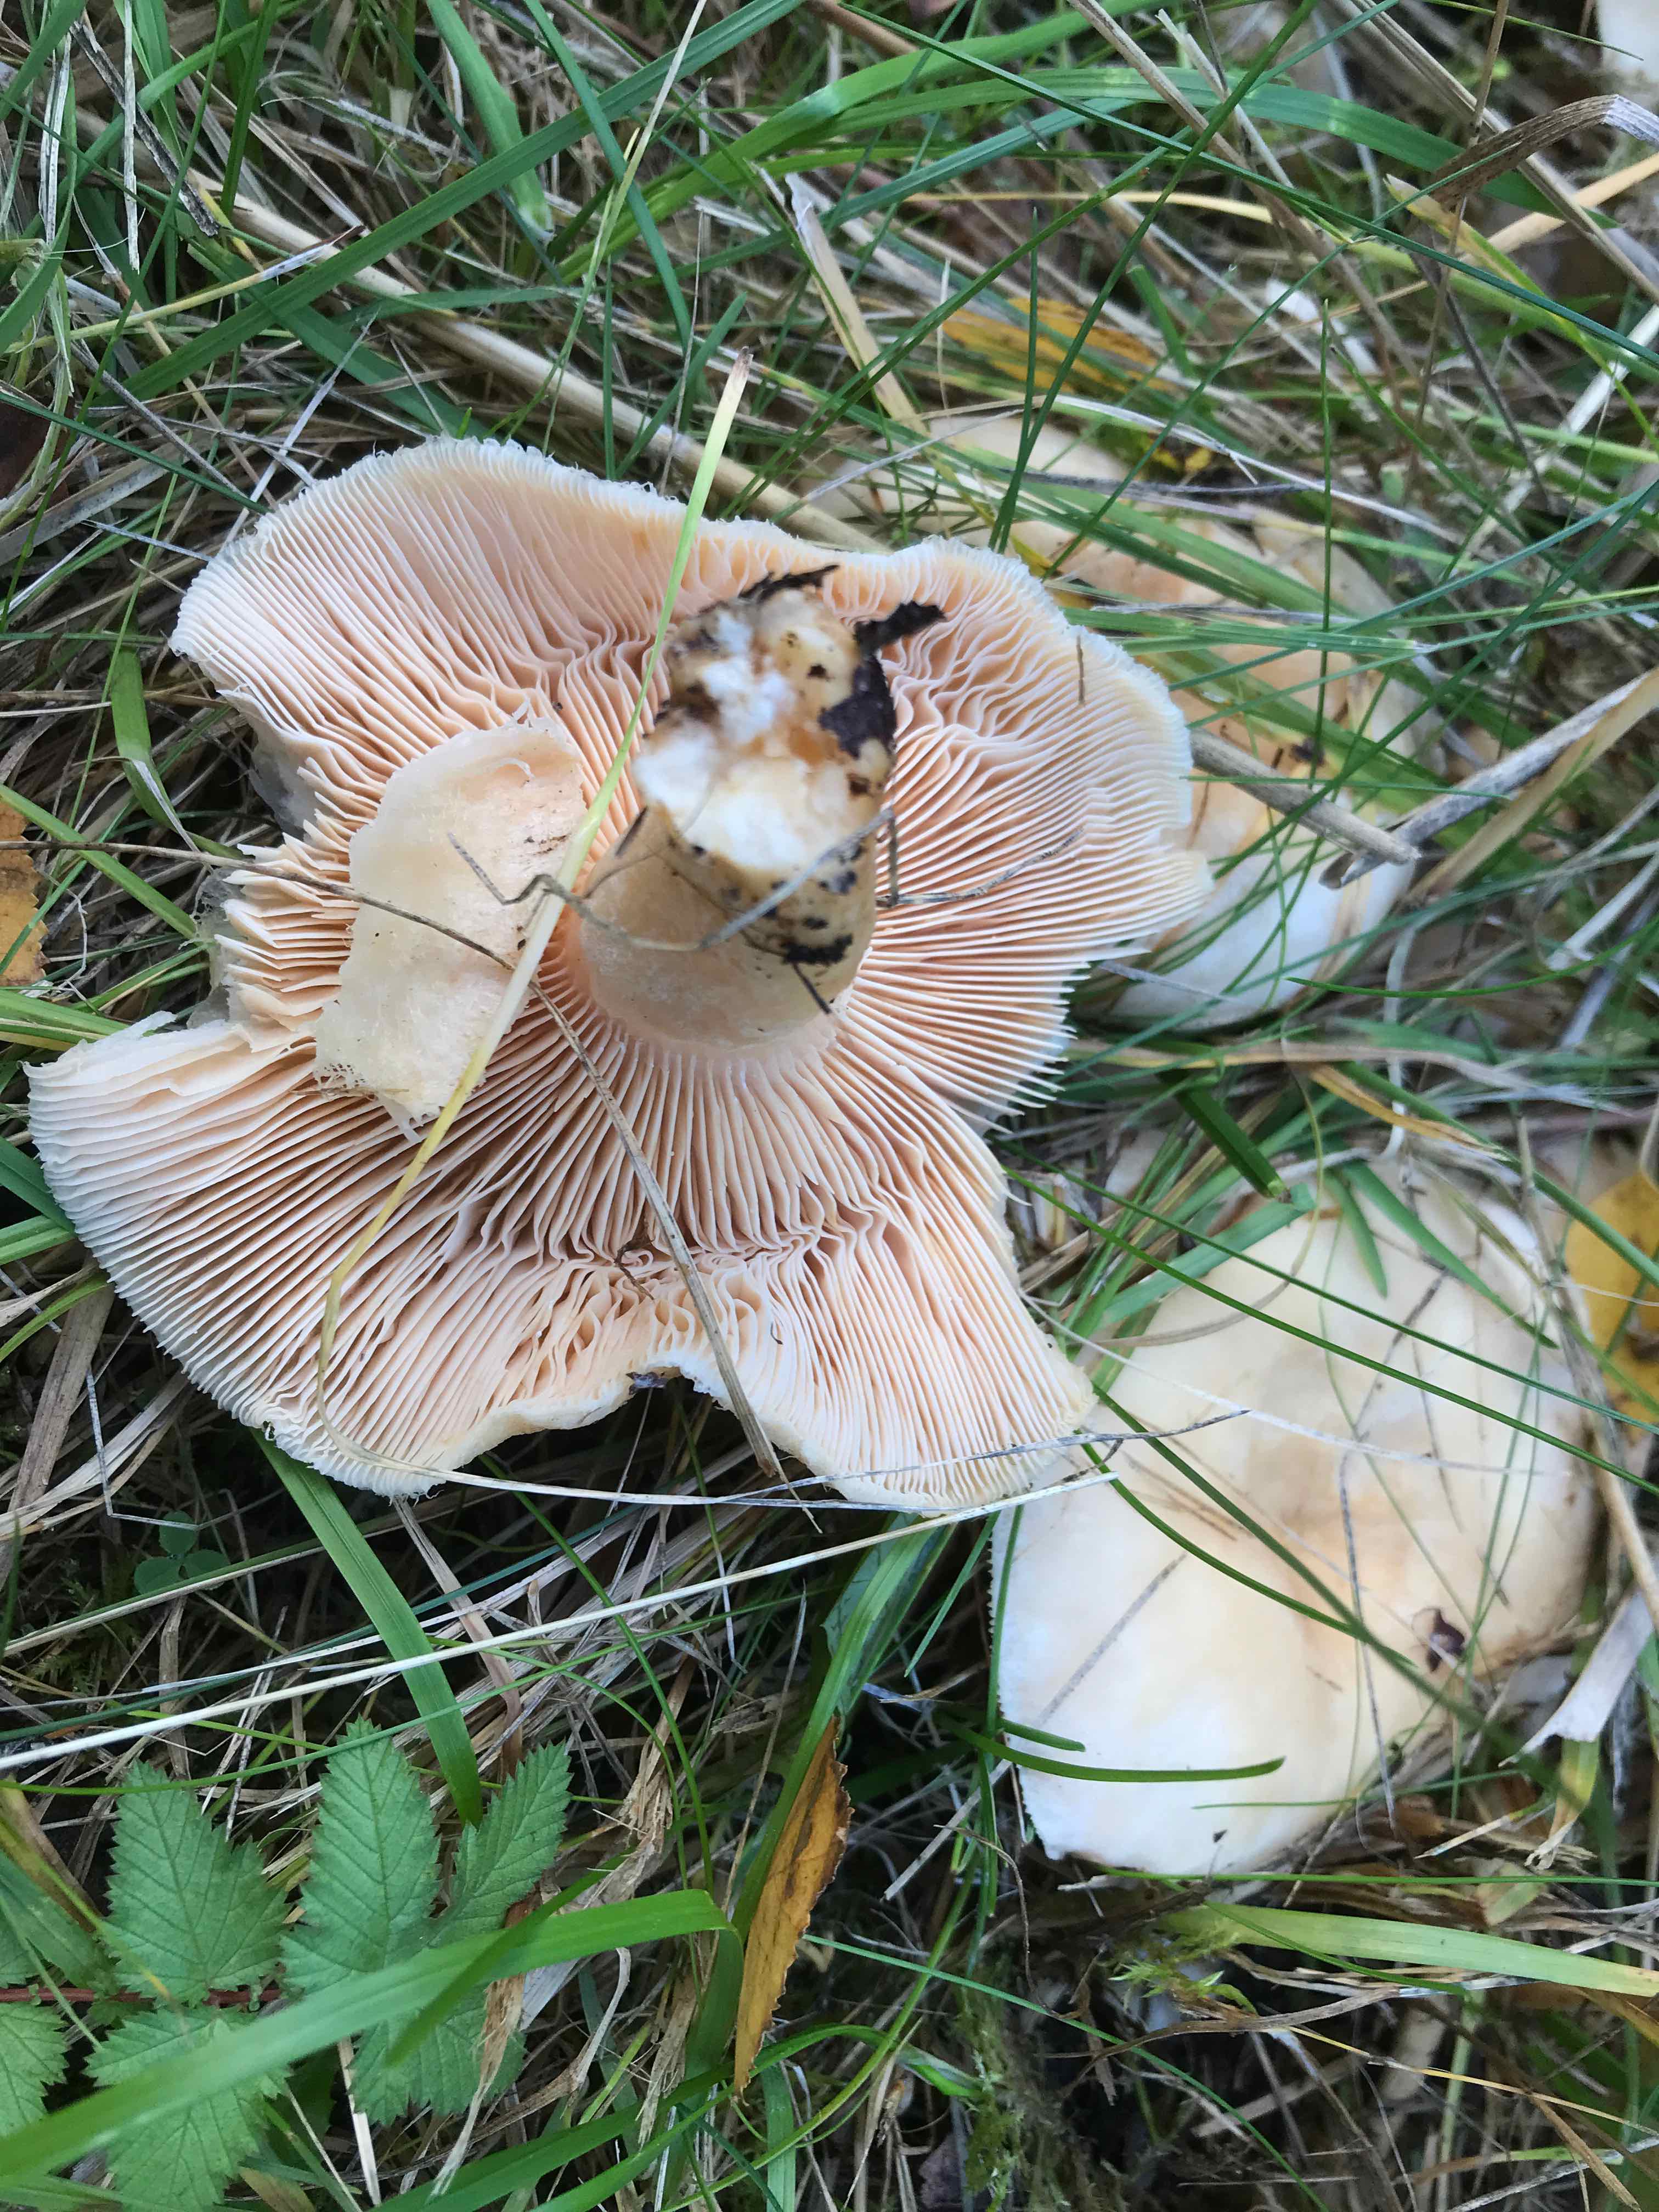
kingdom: Fungi
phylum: Basidiomycota
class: Agaricomycetes
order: Russulales
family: Russulaceae
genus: Lactarius
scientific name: Lactarius pubescens
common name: dunet mælkehat
